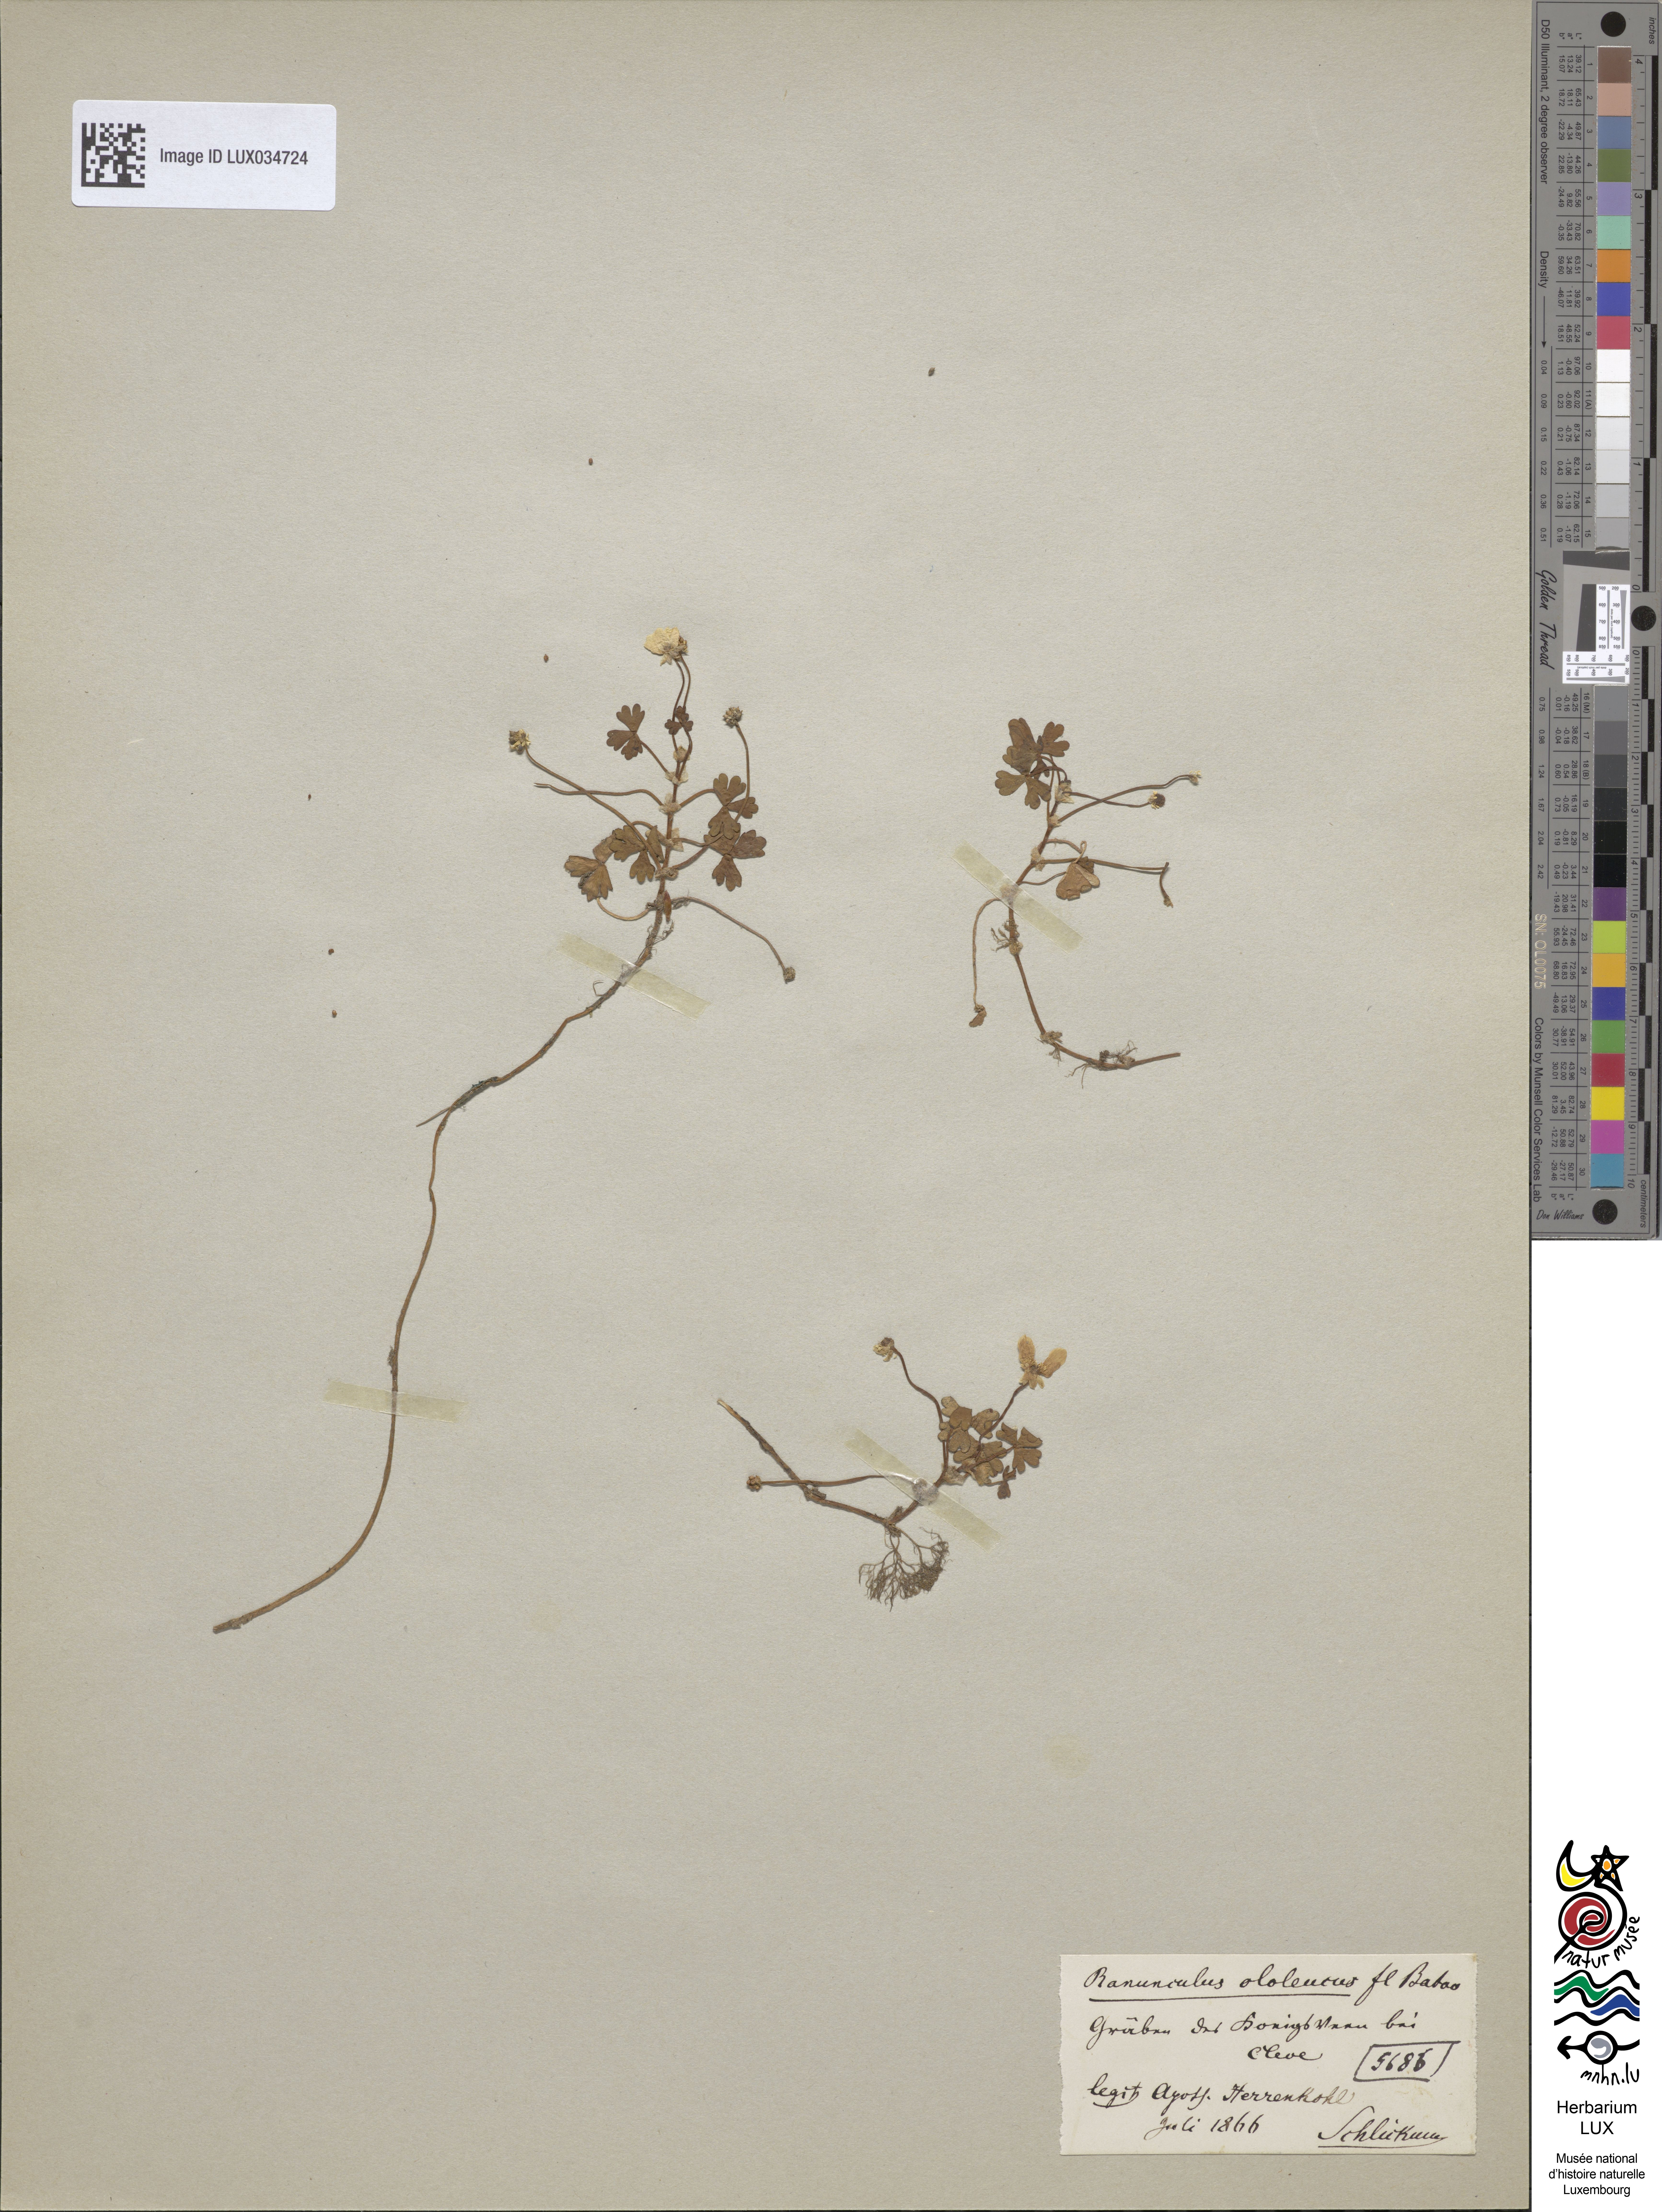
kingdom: Plantae
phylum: Tracheophyta
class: Magnoliopsida
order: Ranunculales
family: Ranunculaceae
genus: Ranunculus
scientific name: Ranunculus peltatus
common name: Pond water-crowfoot
